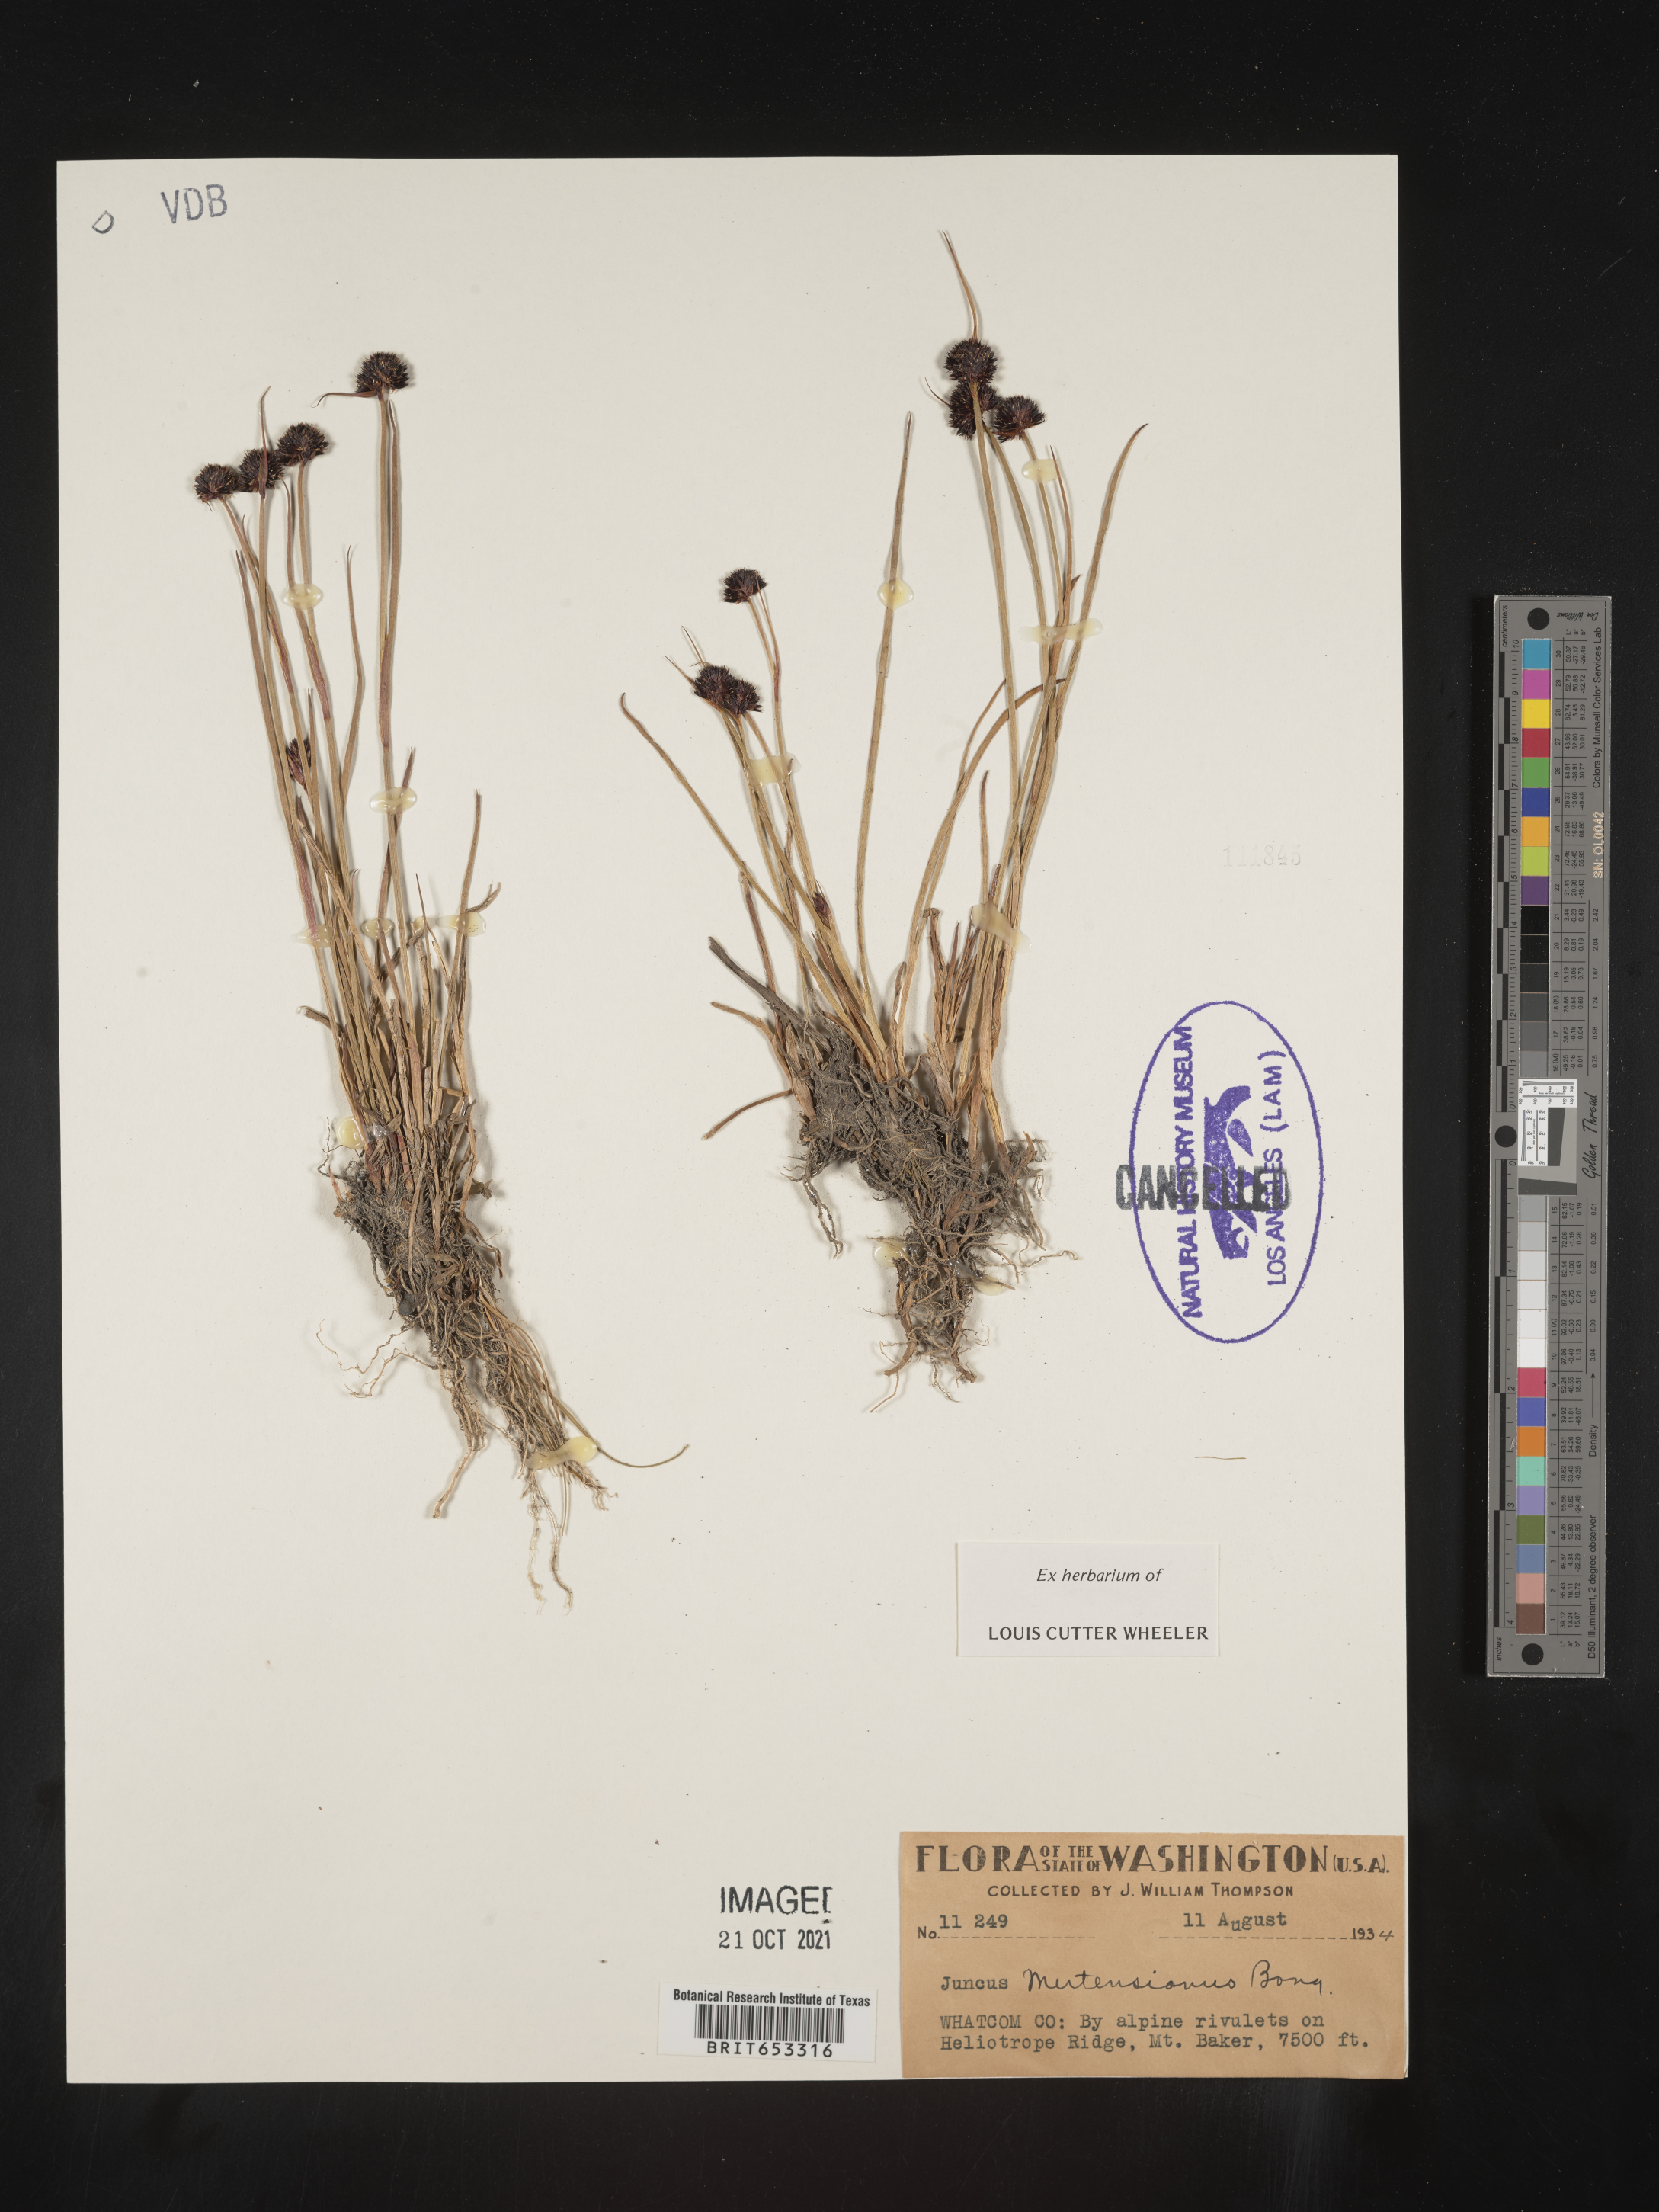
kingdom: Plantae
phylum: Tracheophyta
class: Liliopsida
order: Poales
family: Juncaceae
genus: Juncus
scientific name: Juncus mertensianus
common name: Merten's rush
